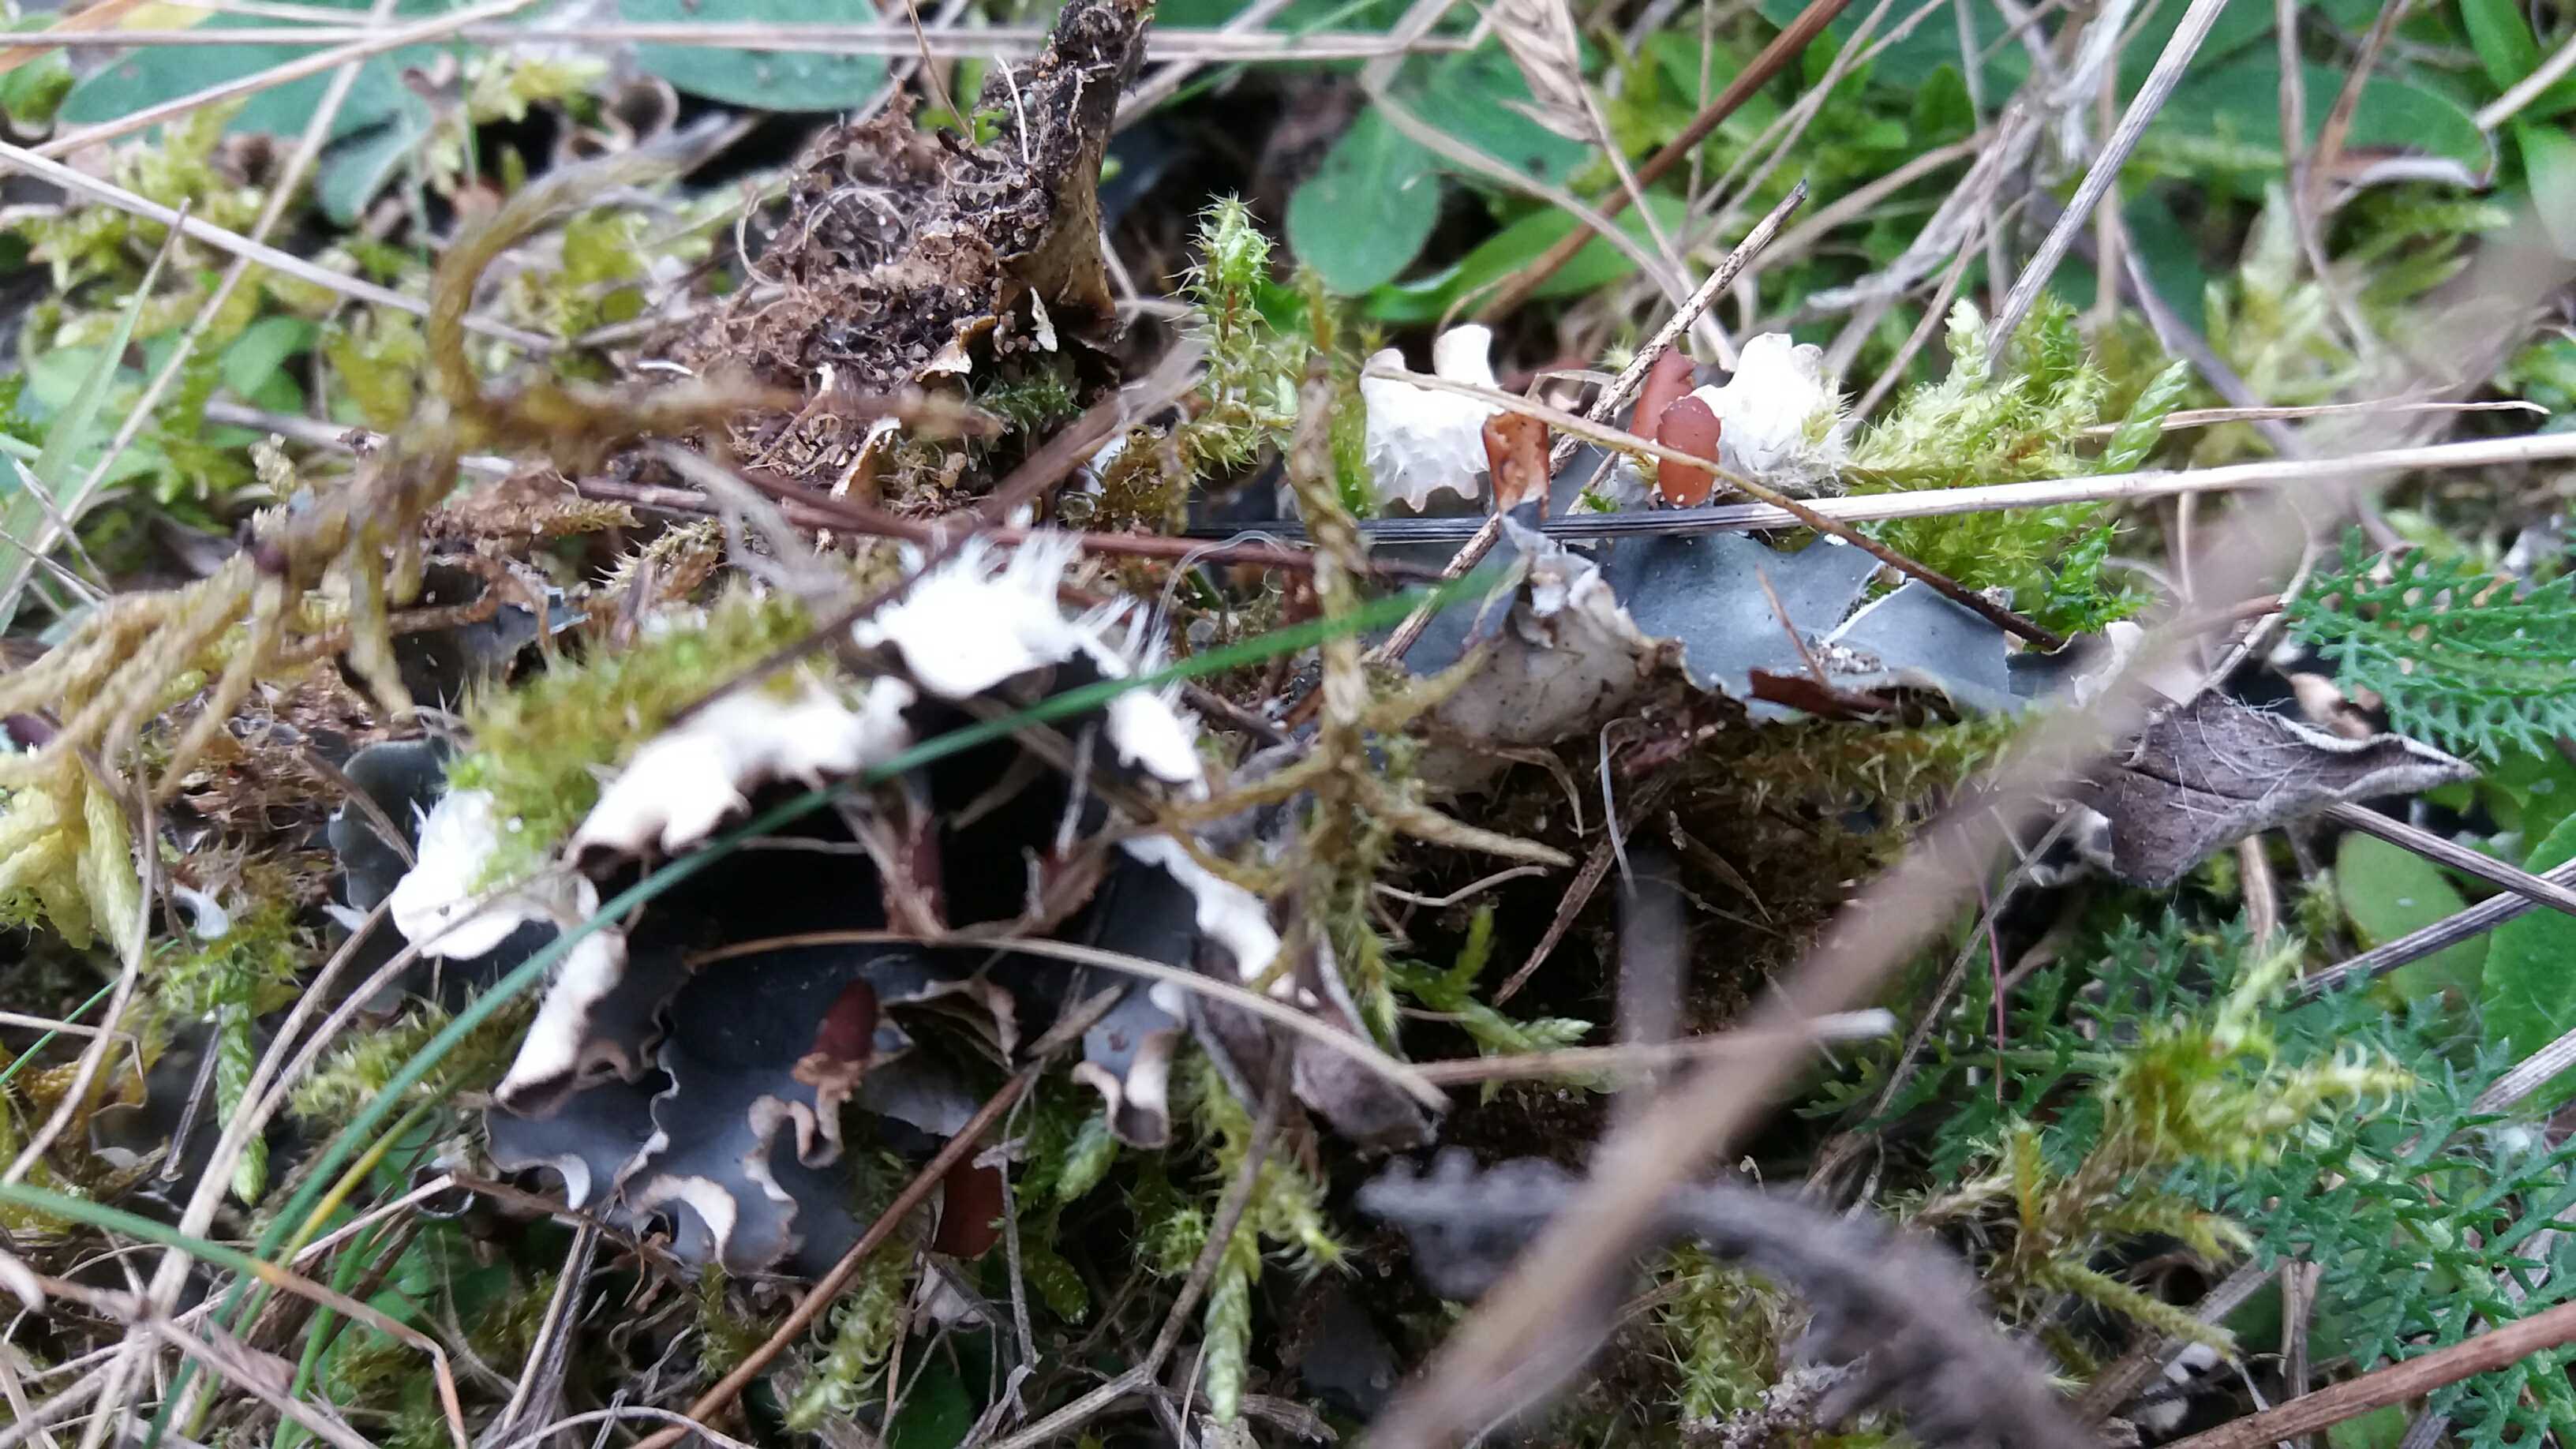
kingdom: Fungi
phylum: Ascomycota
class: Lecanoromycetes
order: Peltigerales
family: Peltigeraceae
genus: Peltigera
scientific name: Peltigera hymenina
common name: hinde-skjoldlav
